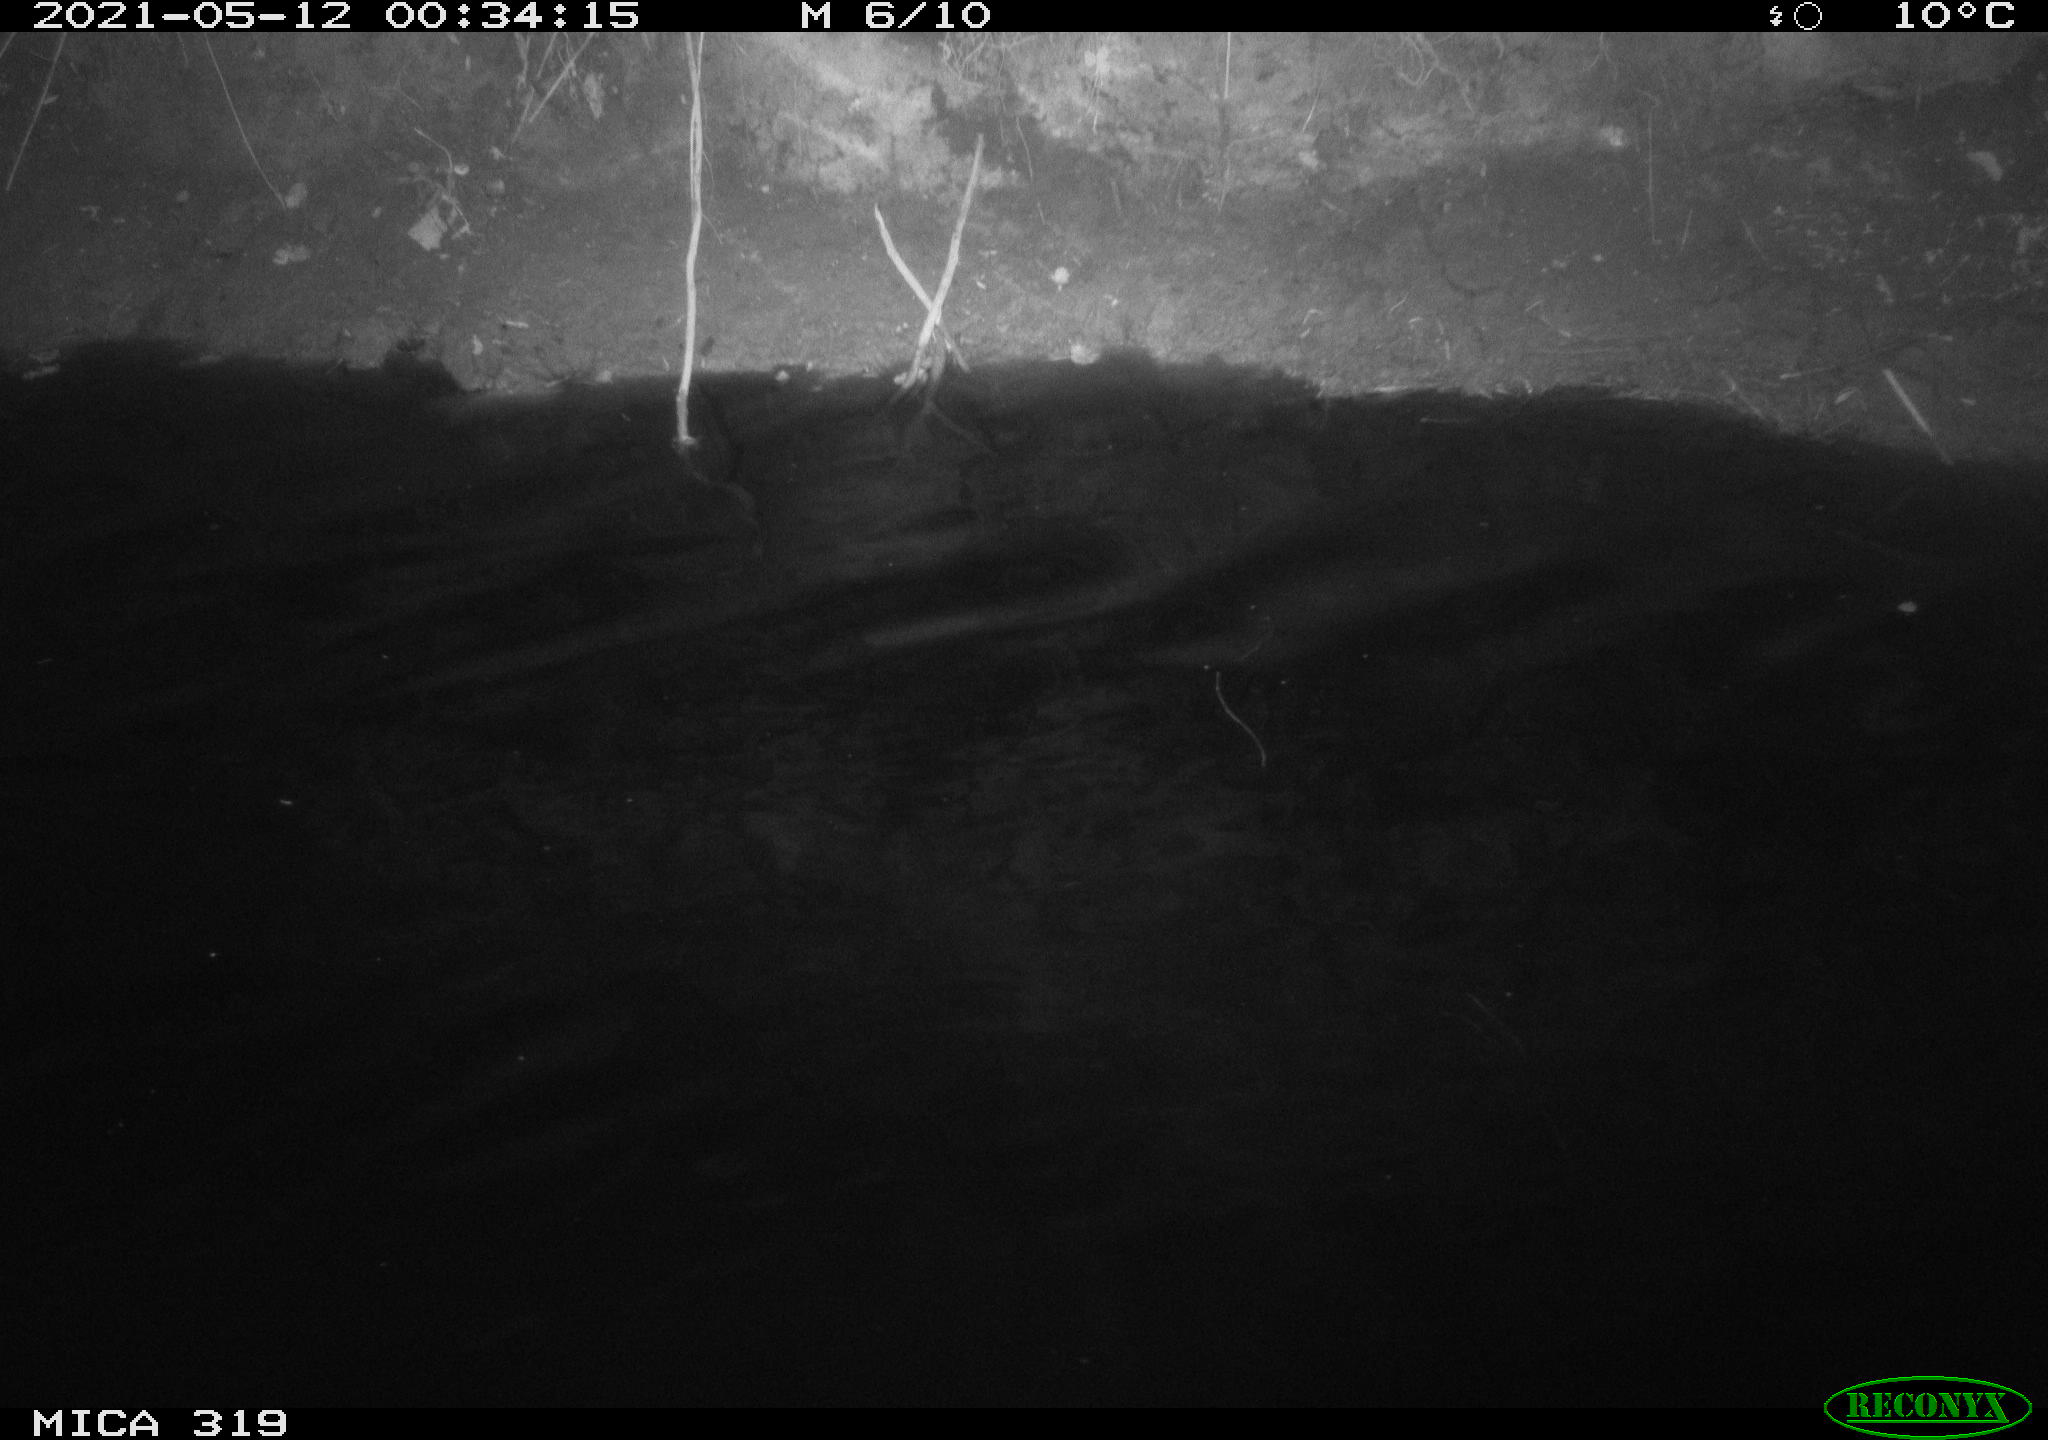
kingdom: Animalia
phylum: Chordata
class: Aves
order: Anseriformes
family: Anatidae
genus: Anas
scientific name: Anas platyrhynchos
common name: Mallard
